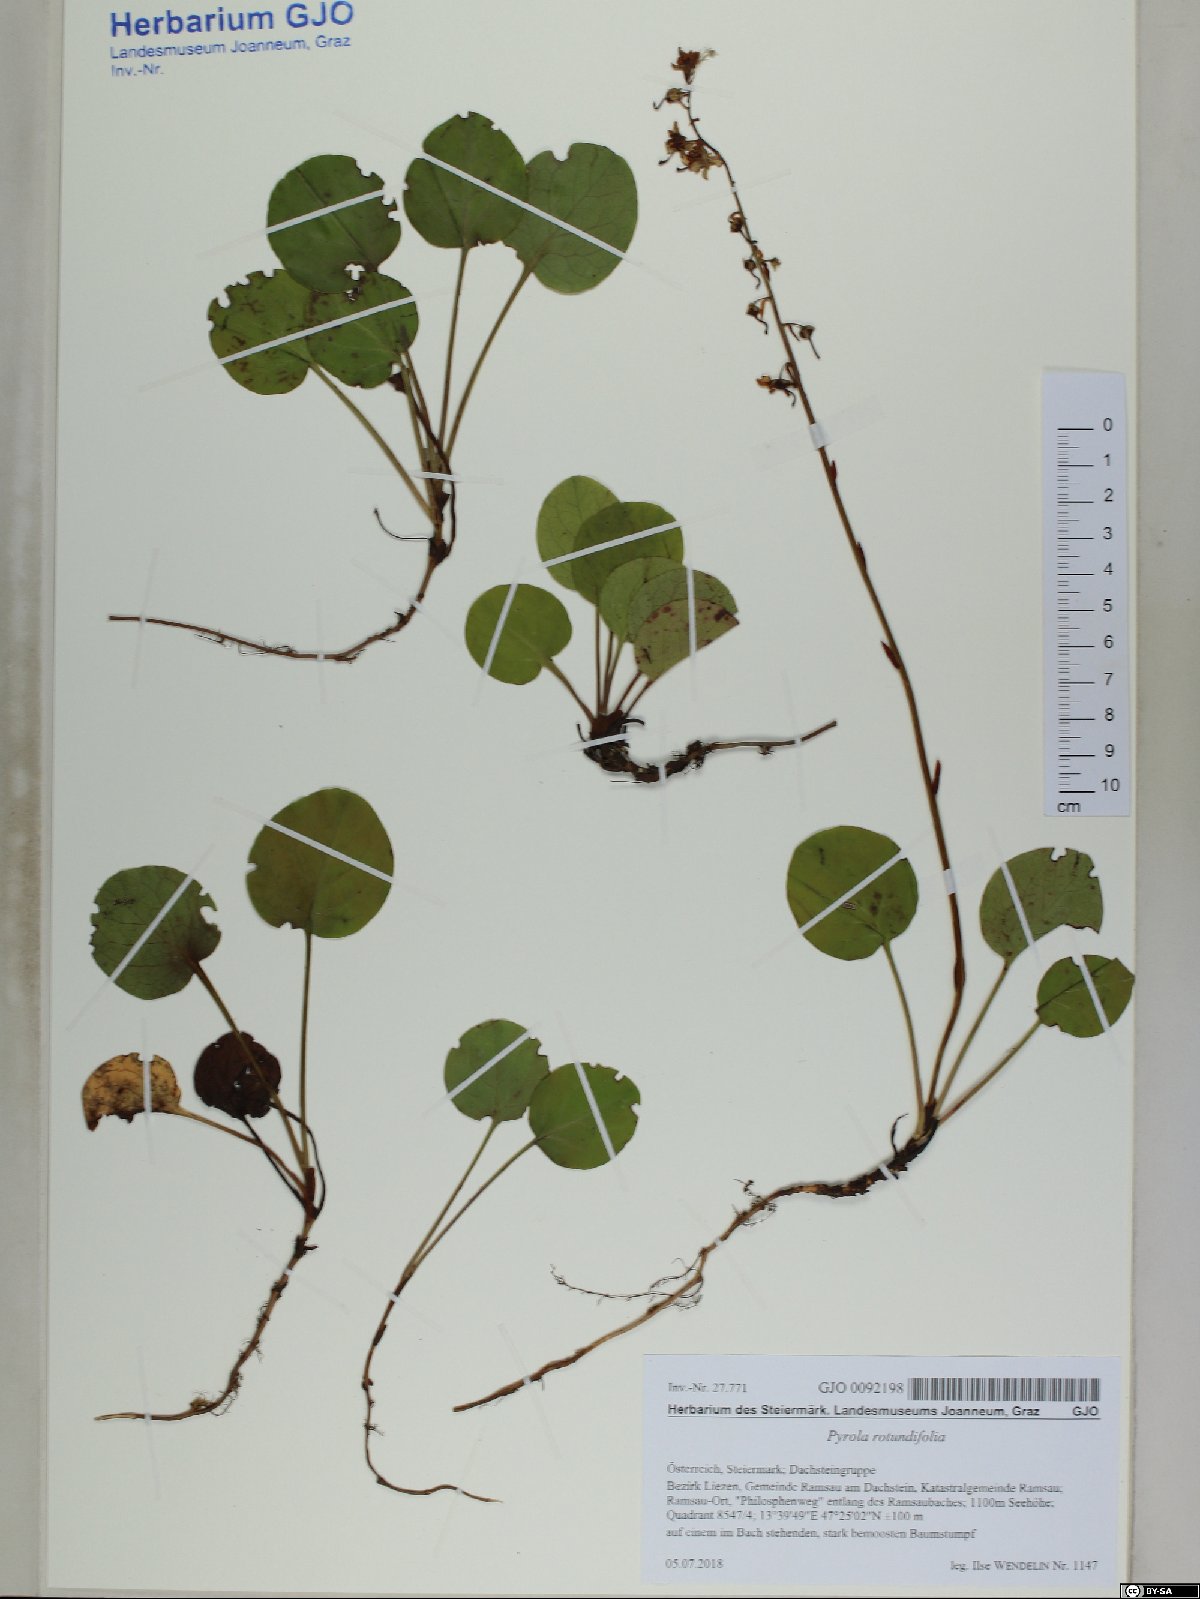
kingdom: Plantae
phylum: Tracheophyta
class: Magnoliopsida
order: Ericales
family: Ericaceae
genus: Pyrola
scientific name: Pyrola rotundifolia
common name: Round-leaved wintergreen
